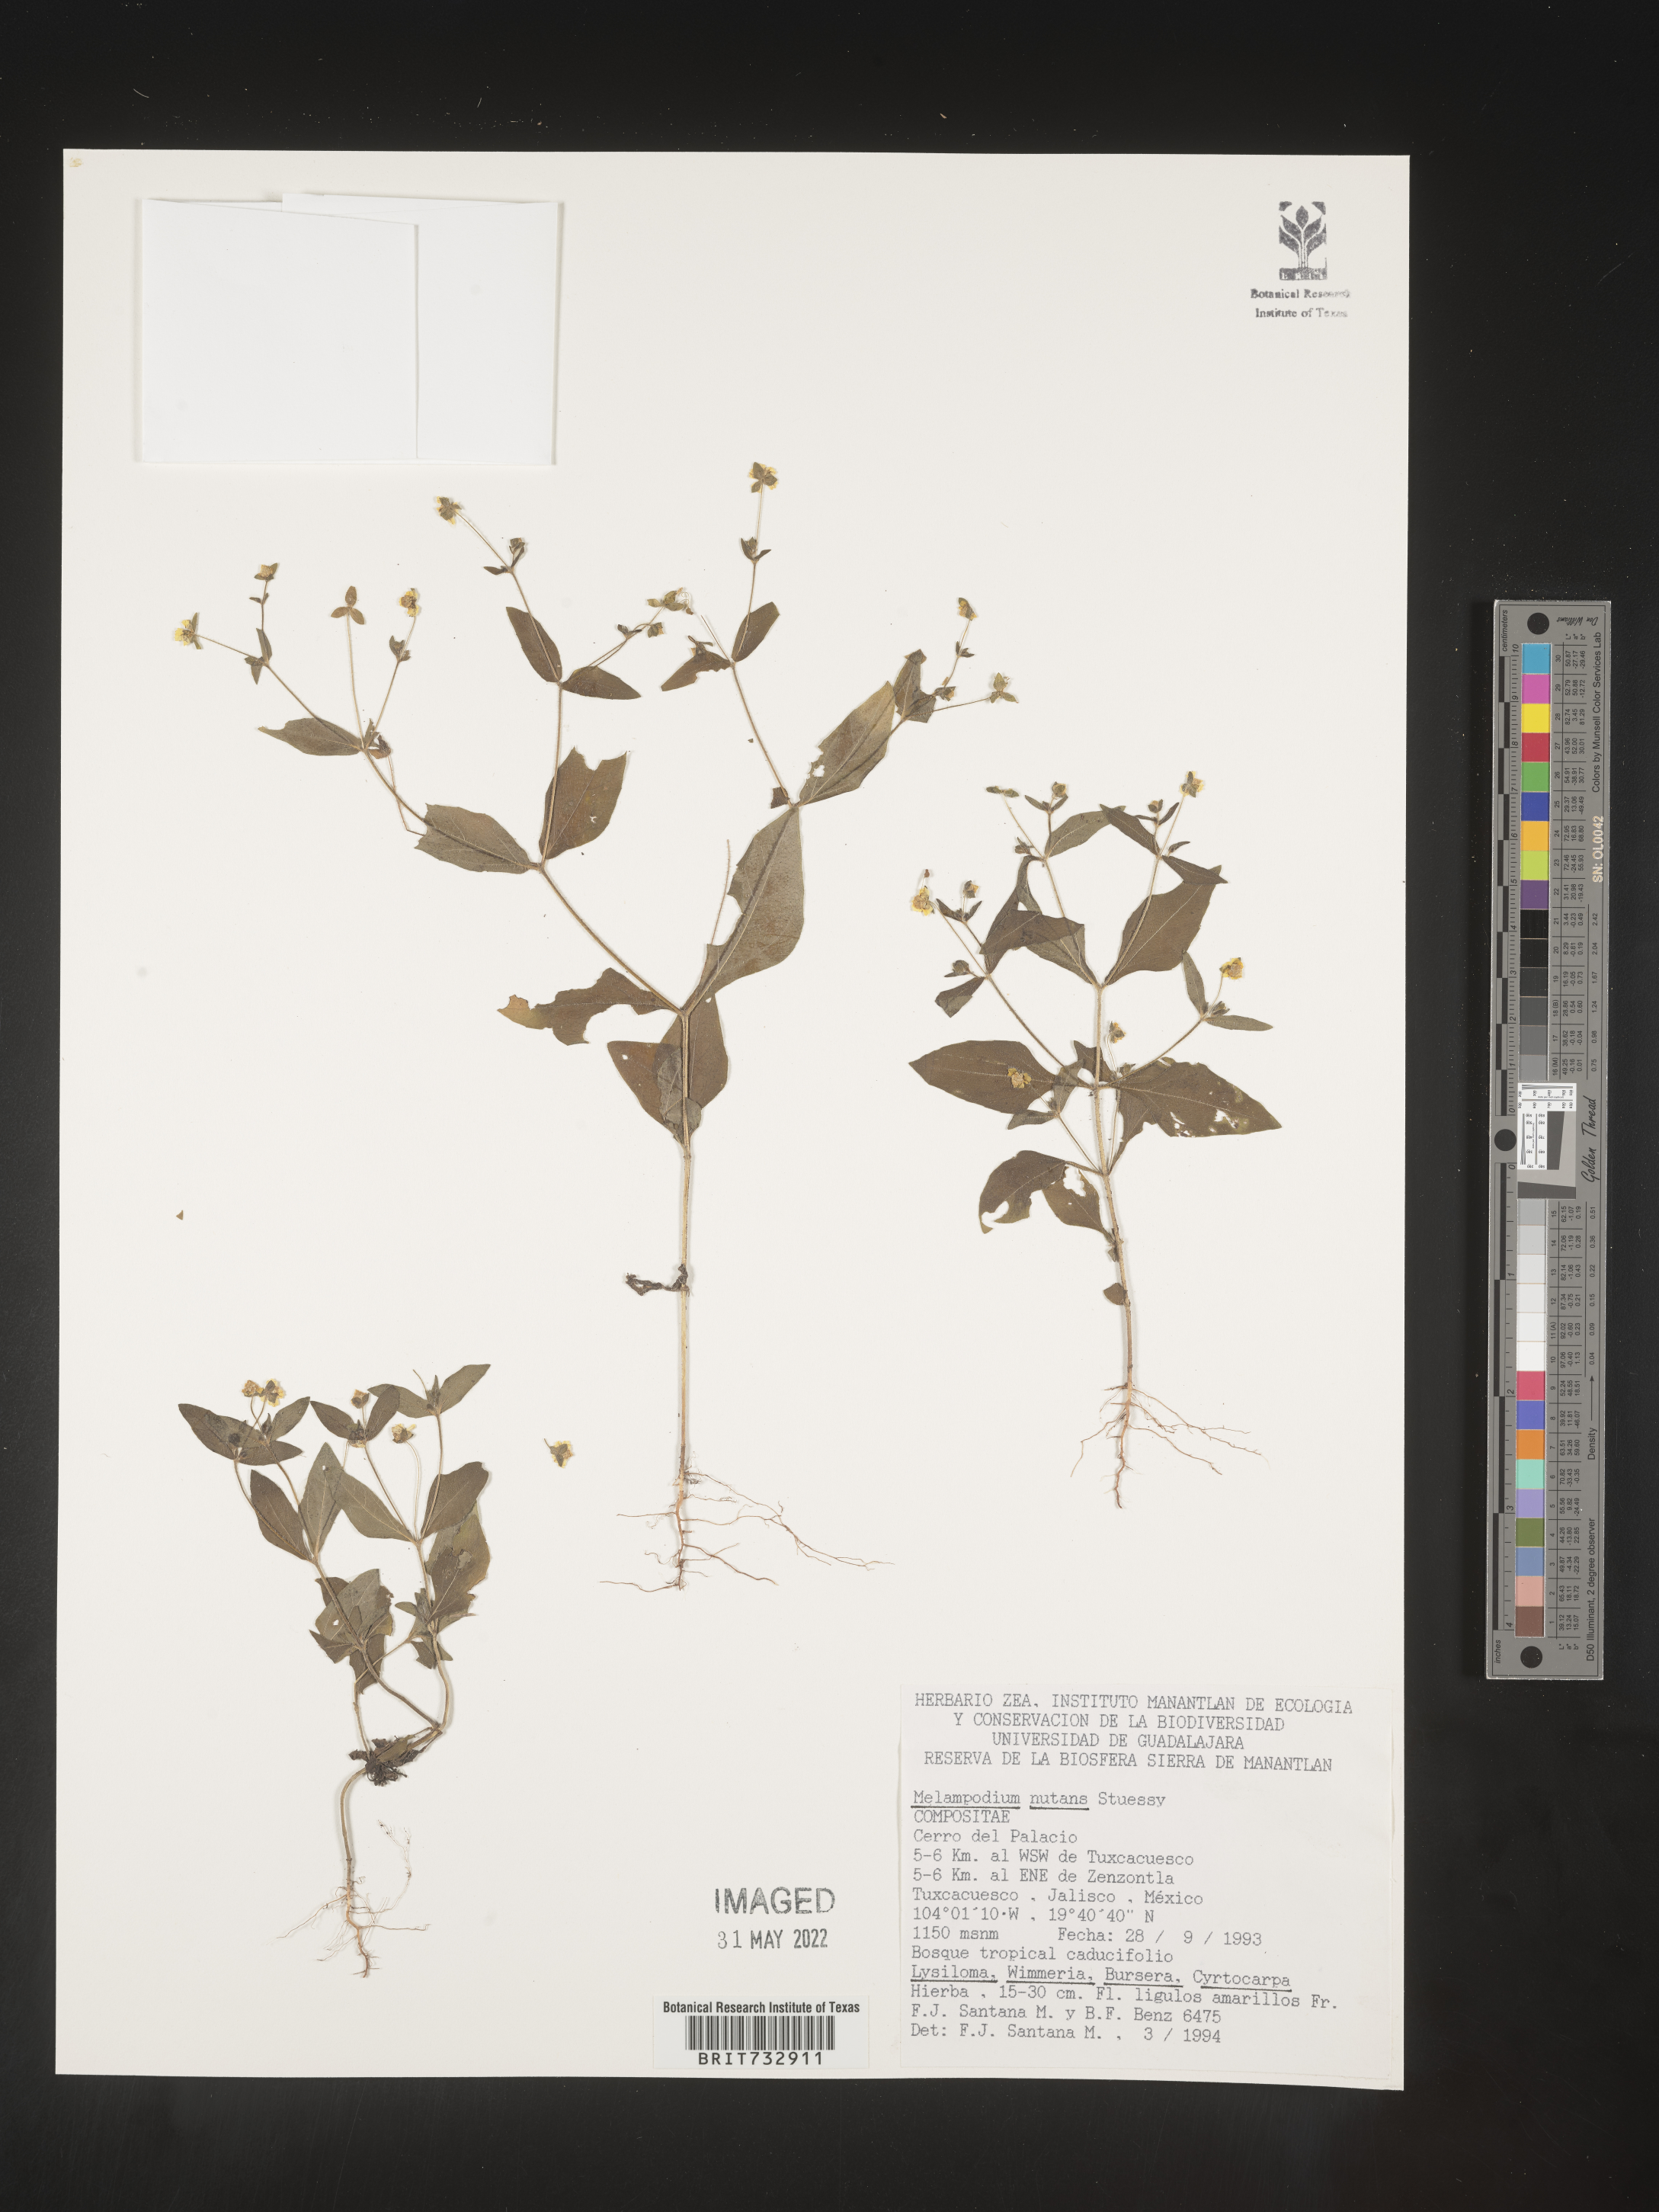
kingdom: Plantae
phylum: Tracheophyta
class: Magnoliopsida
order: Asterales
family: Asteraceae
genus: Melampodium
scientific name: Melampodium
